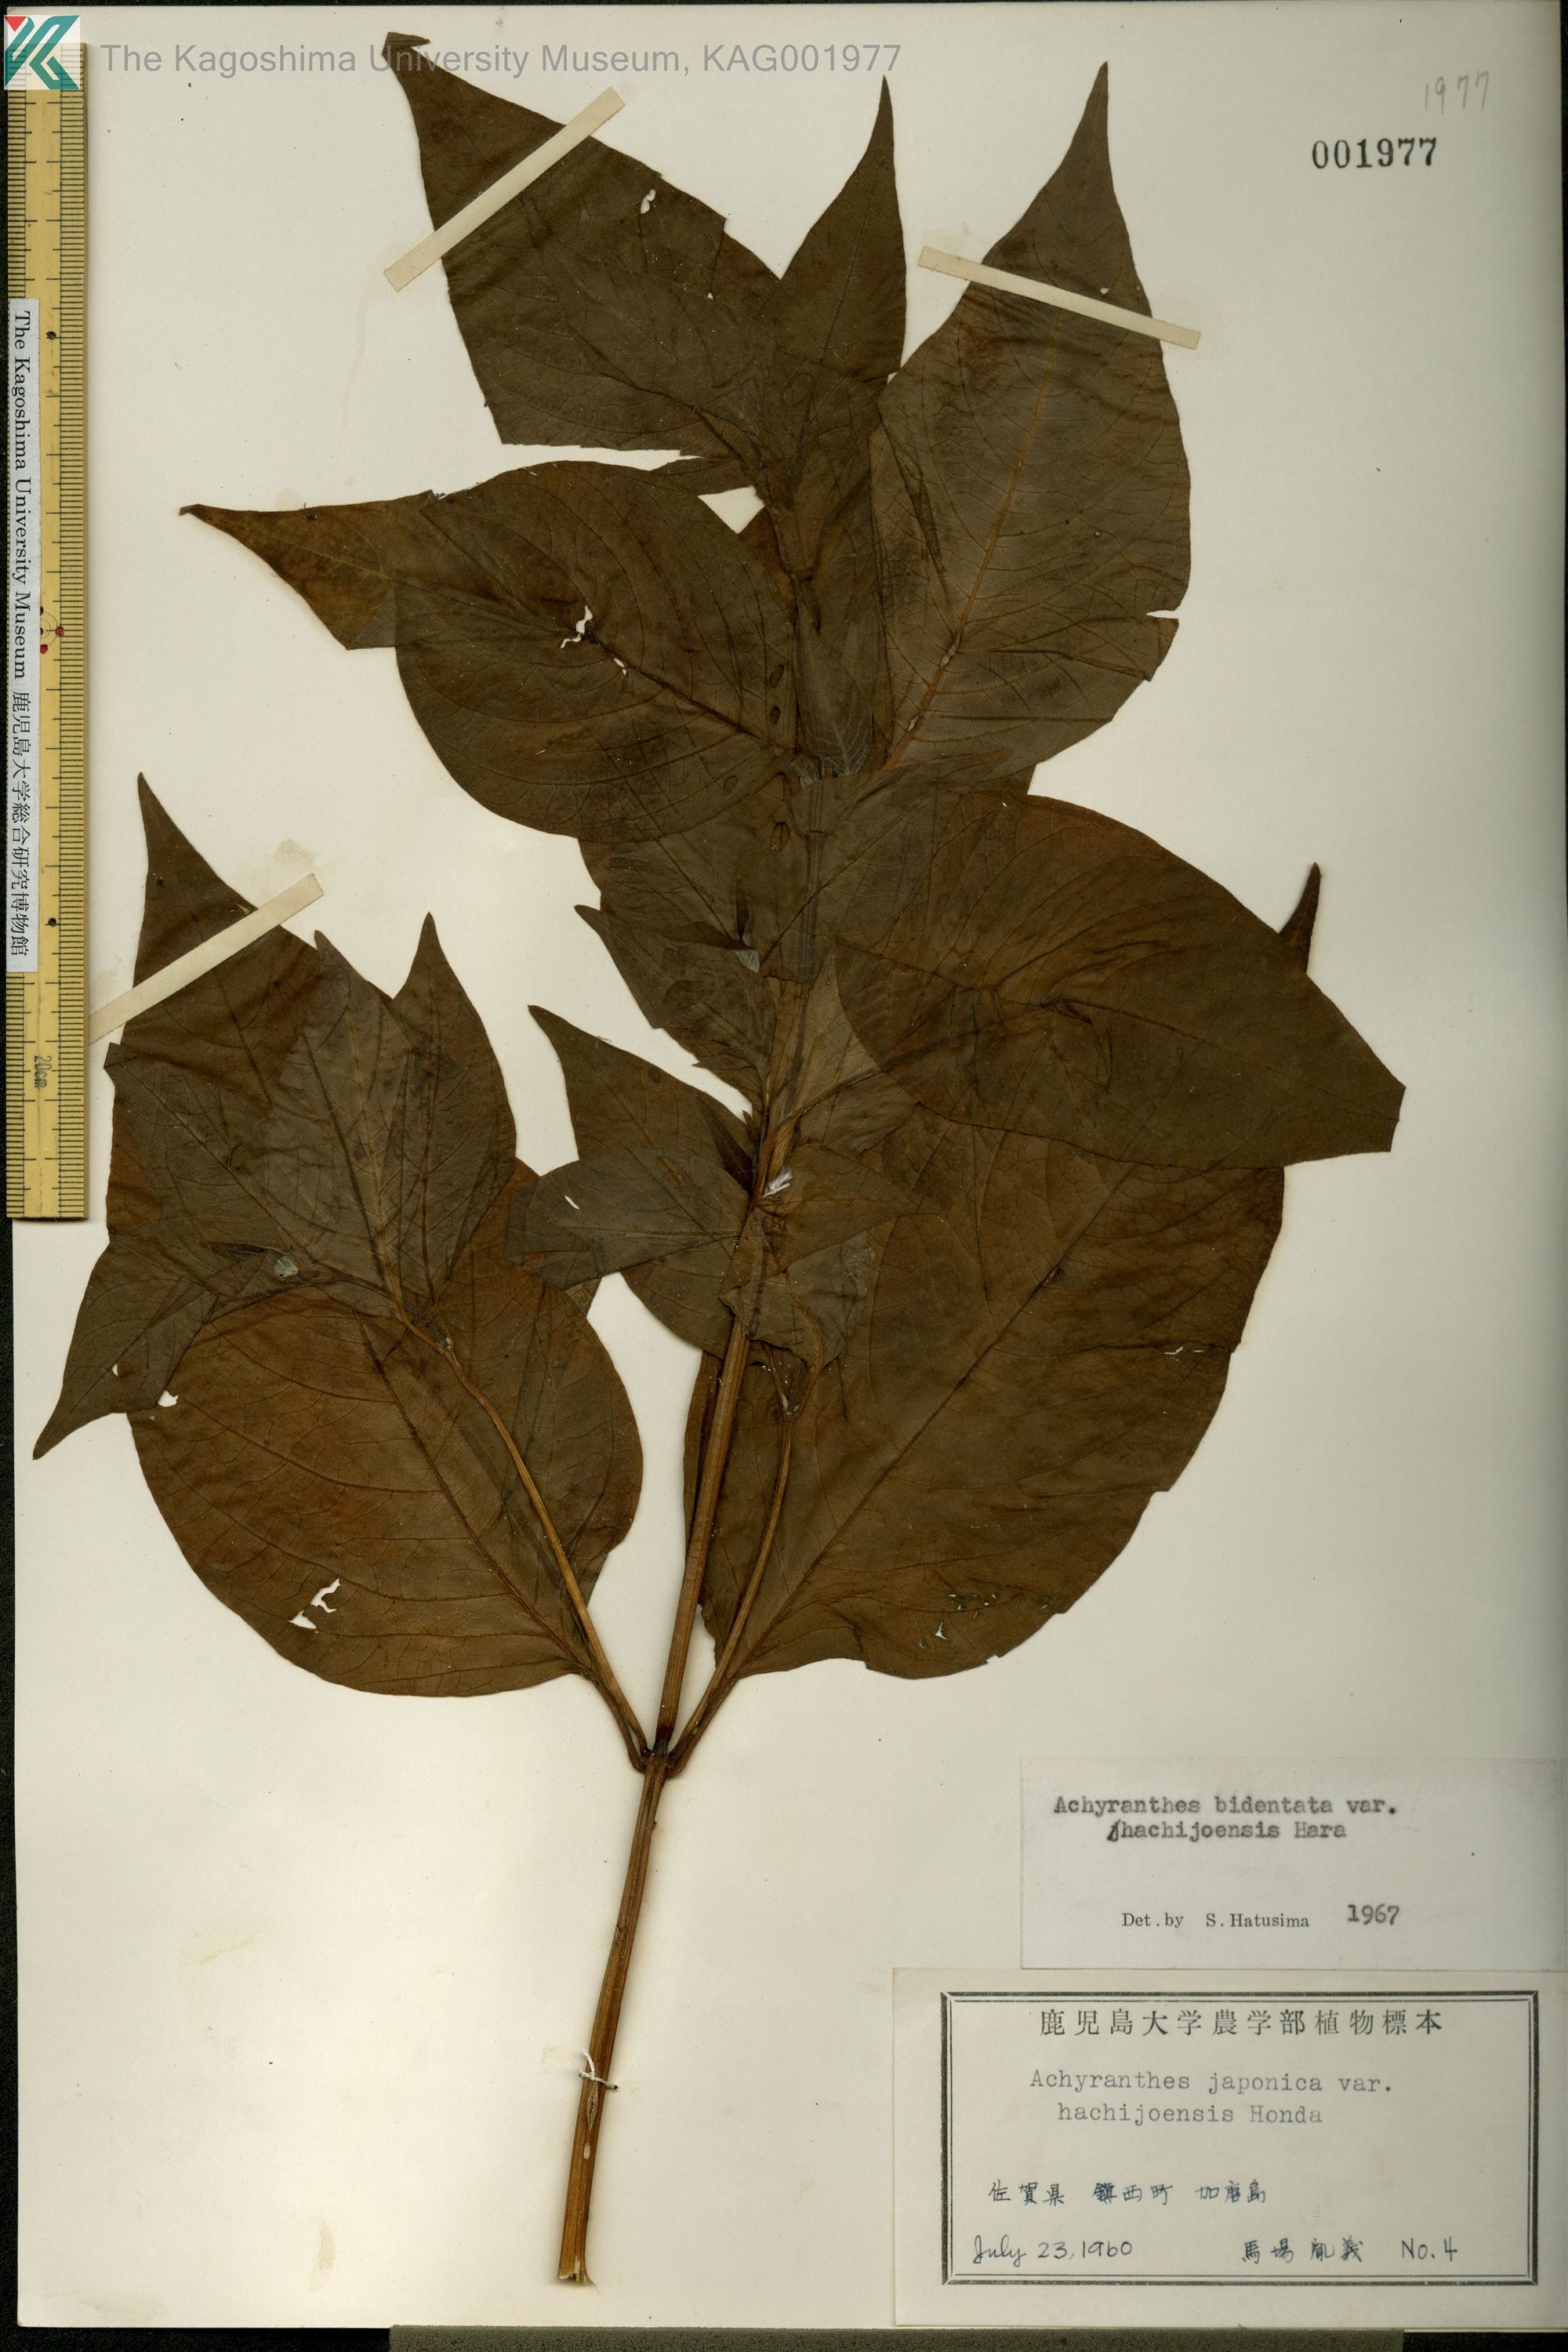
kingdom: Plantae
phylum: Tracheophyta
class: Magnoliopsida
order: Caryophyllales
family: Amaranthaceae
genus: Achyranthes
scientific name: Achyranthes bidentata
